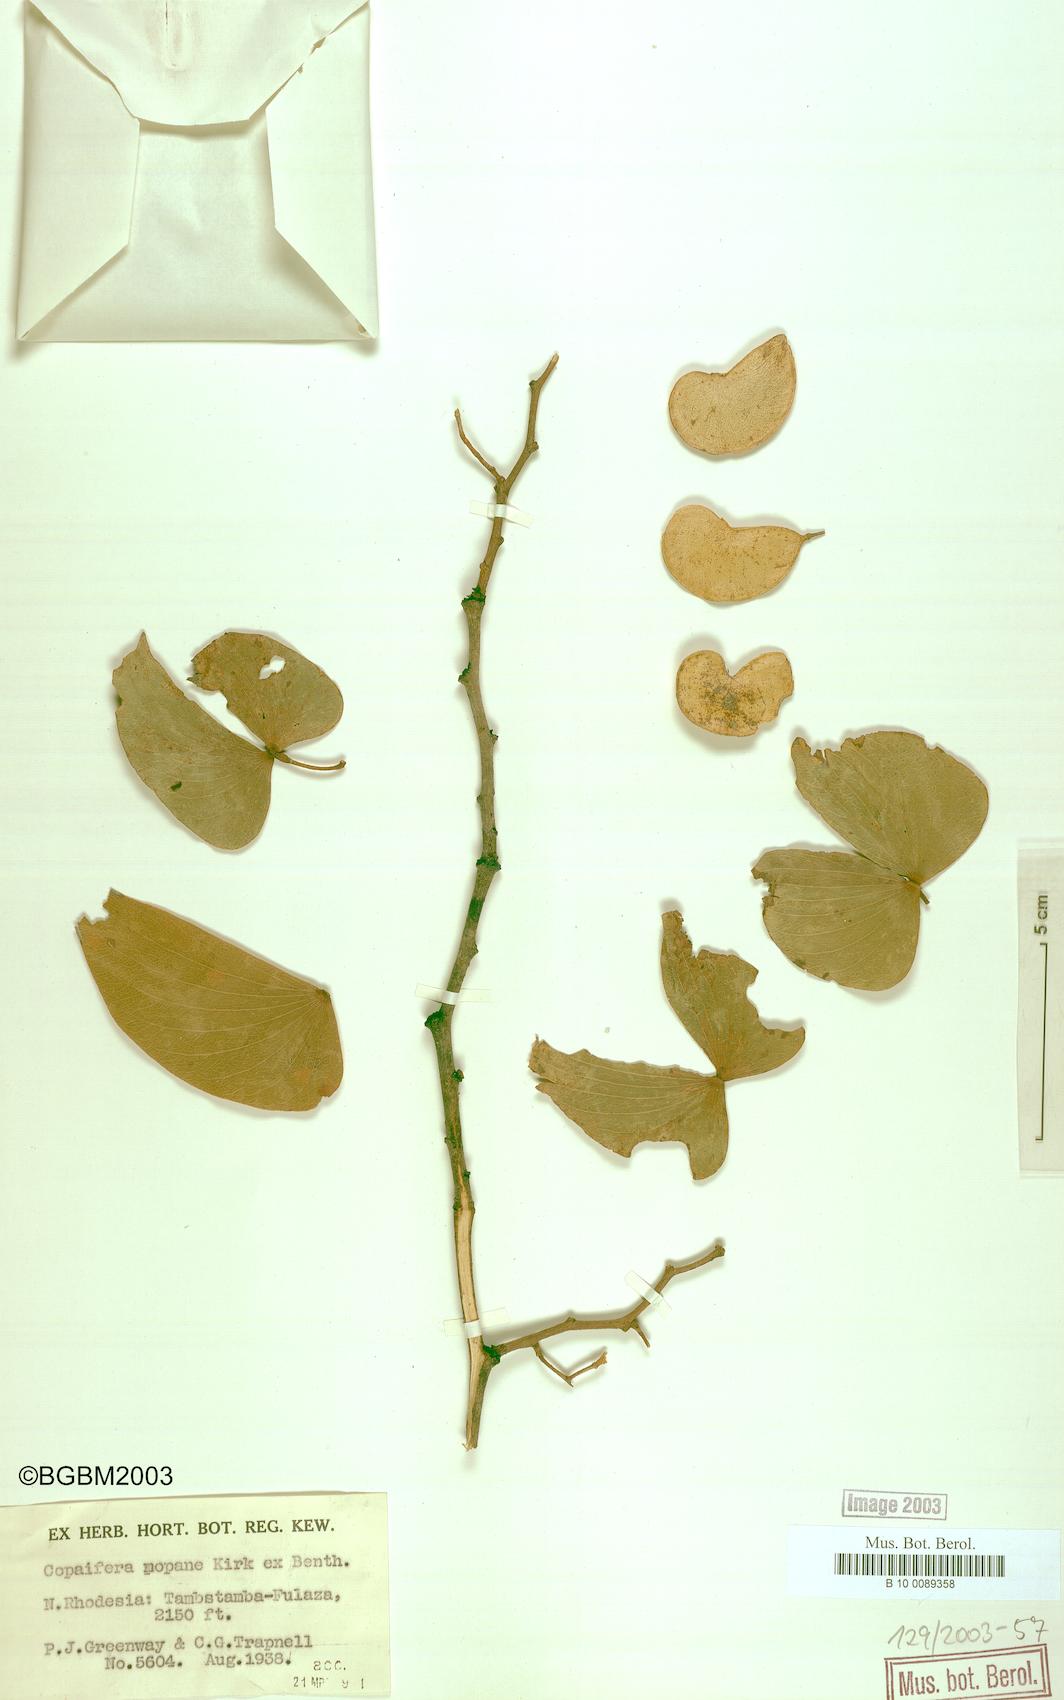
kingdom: Plantae
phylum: Tracheophyta
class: Magnoliopsida
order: Fabales
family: Fabaceae
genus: Colophospermum
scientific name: Colophospermum mopane
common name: Mopane
